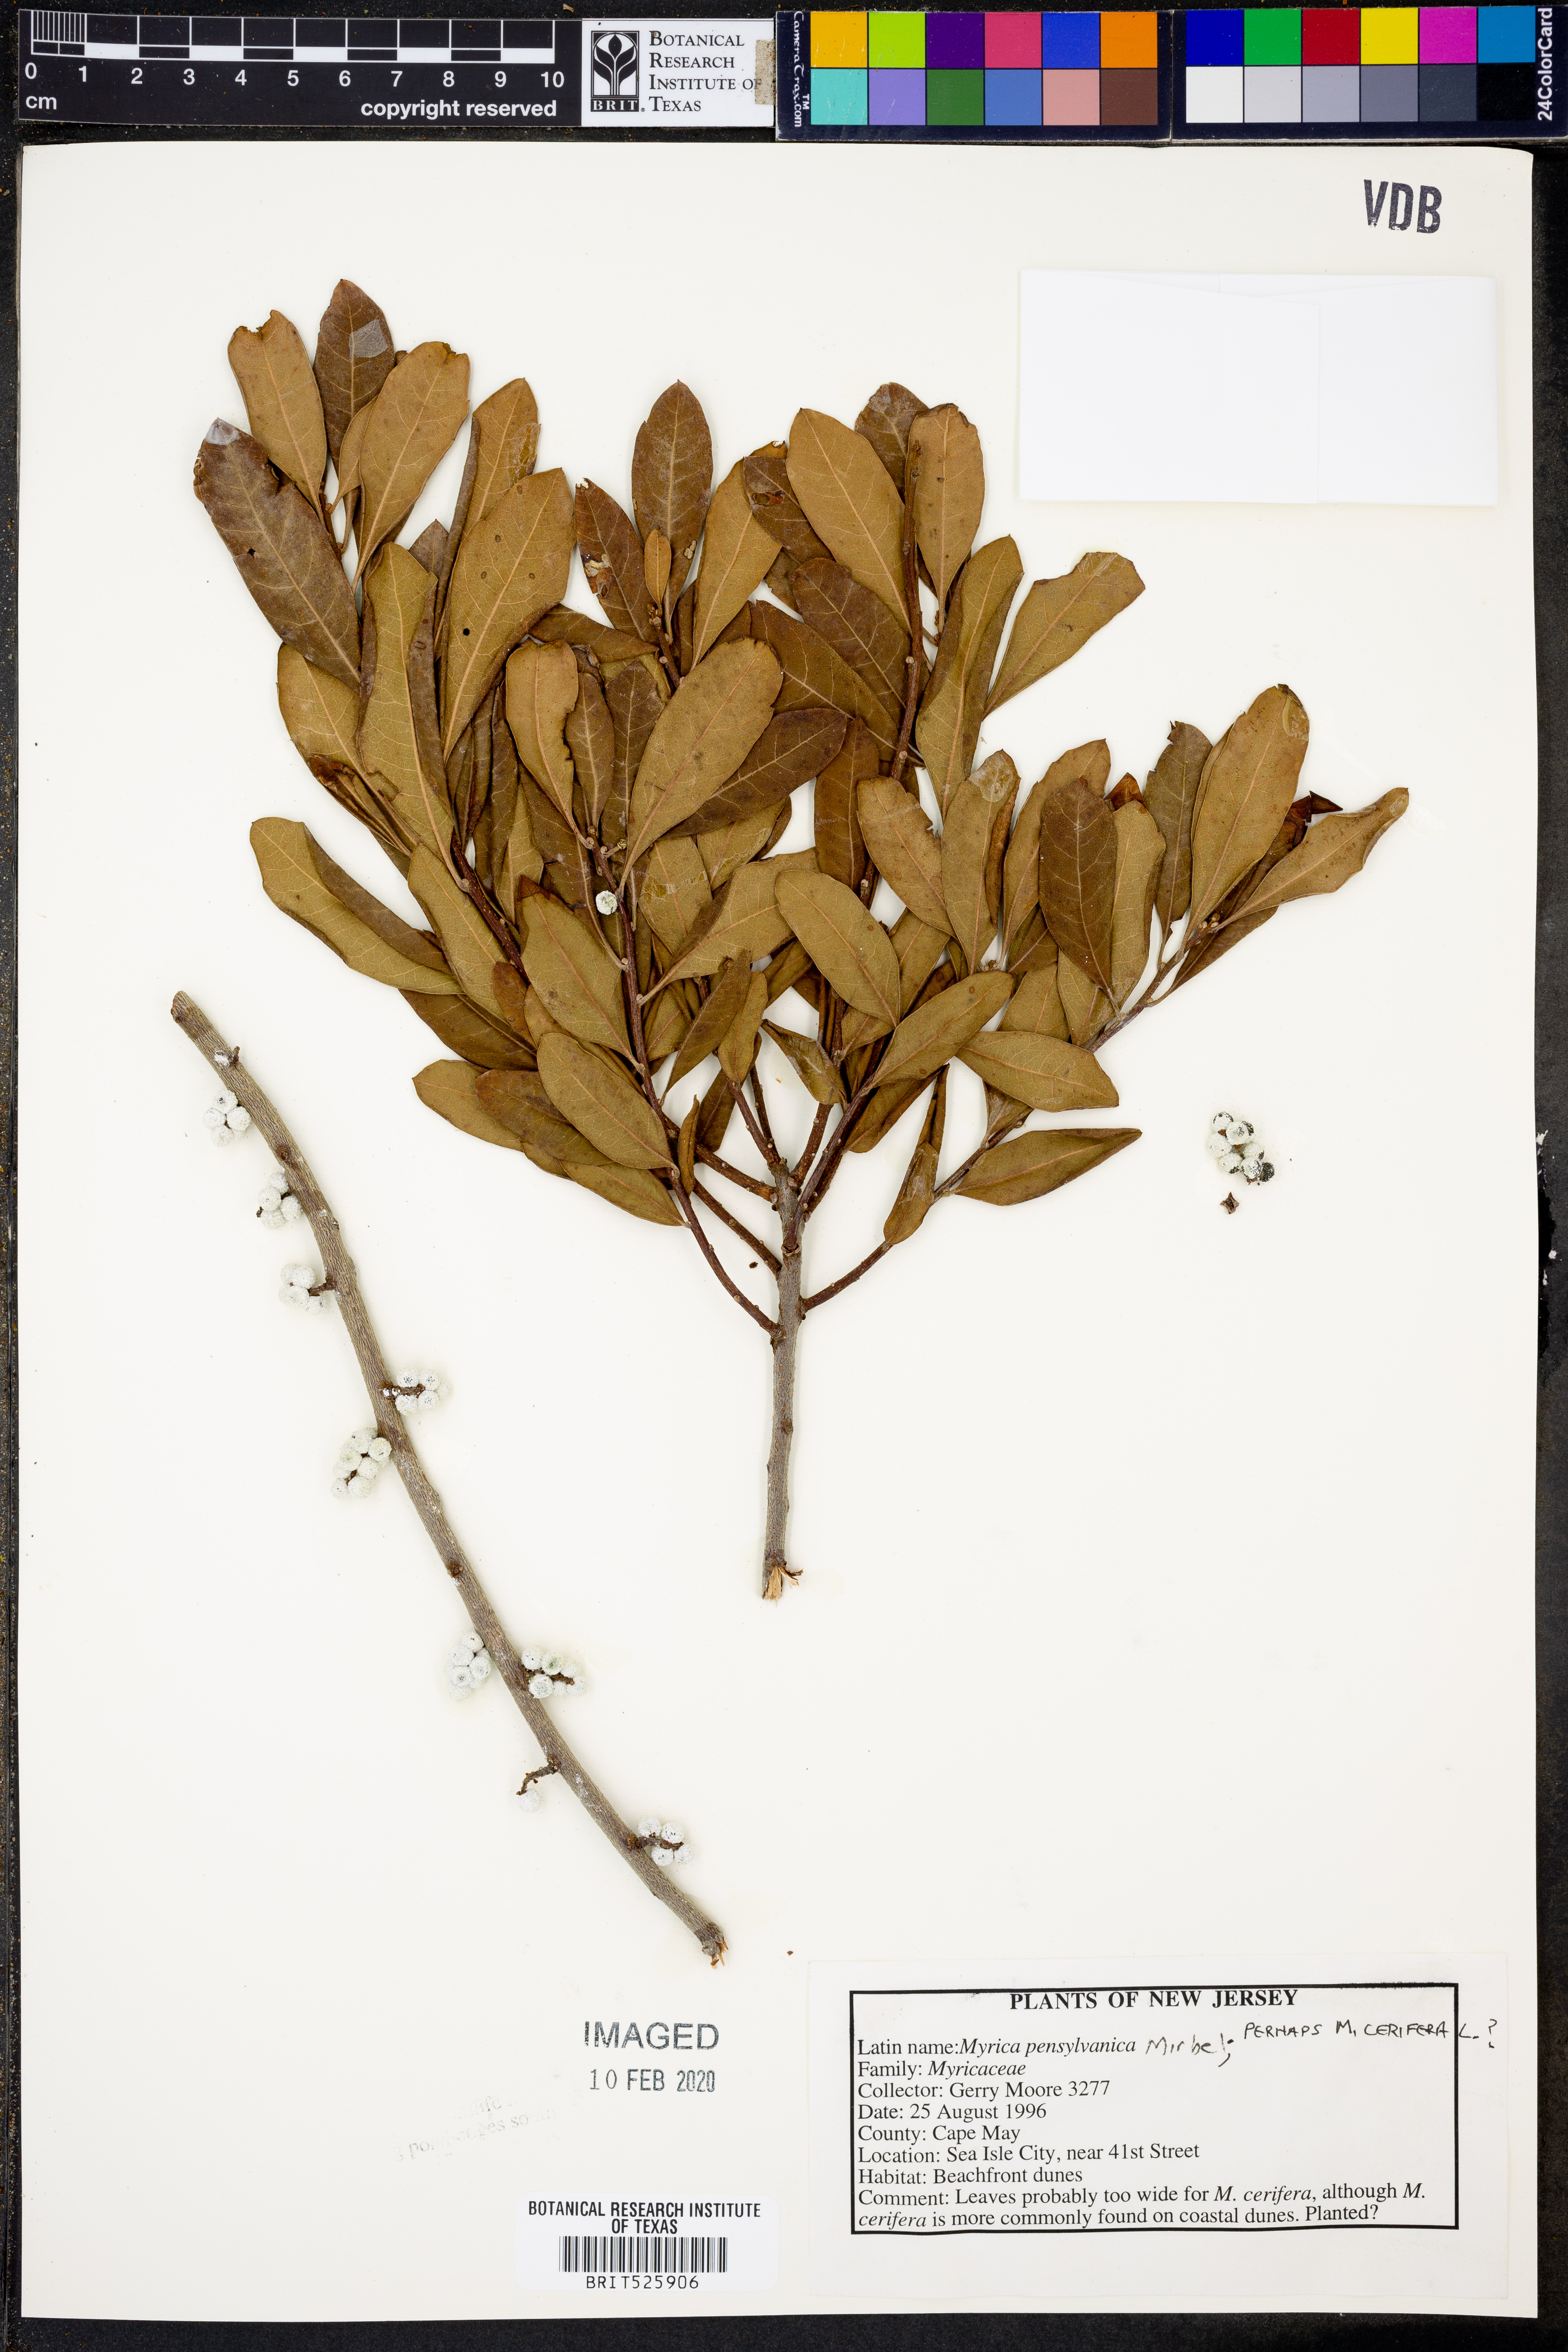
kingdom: Plantae
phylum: Tracheophyta
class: Magnoliopsida
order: Fagales
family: Myricaceae
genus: Morella
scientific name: Morella pensylvanica
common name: Northern bayberry
